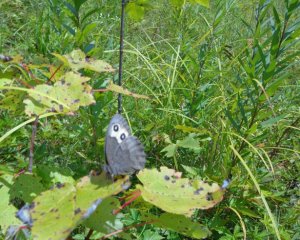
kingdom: Animalia
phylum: Arthropoda
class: Insecta
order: Lepidoptera
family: Nymphalidae
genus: Cercyonis
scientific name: Cercyonis pegala
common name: Common Wood-Nymph
